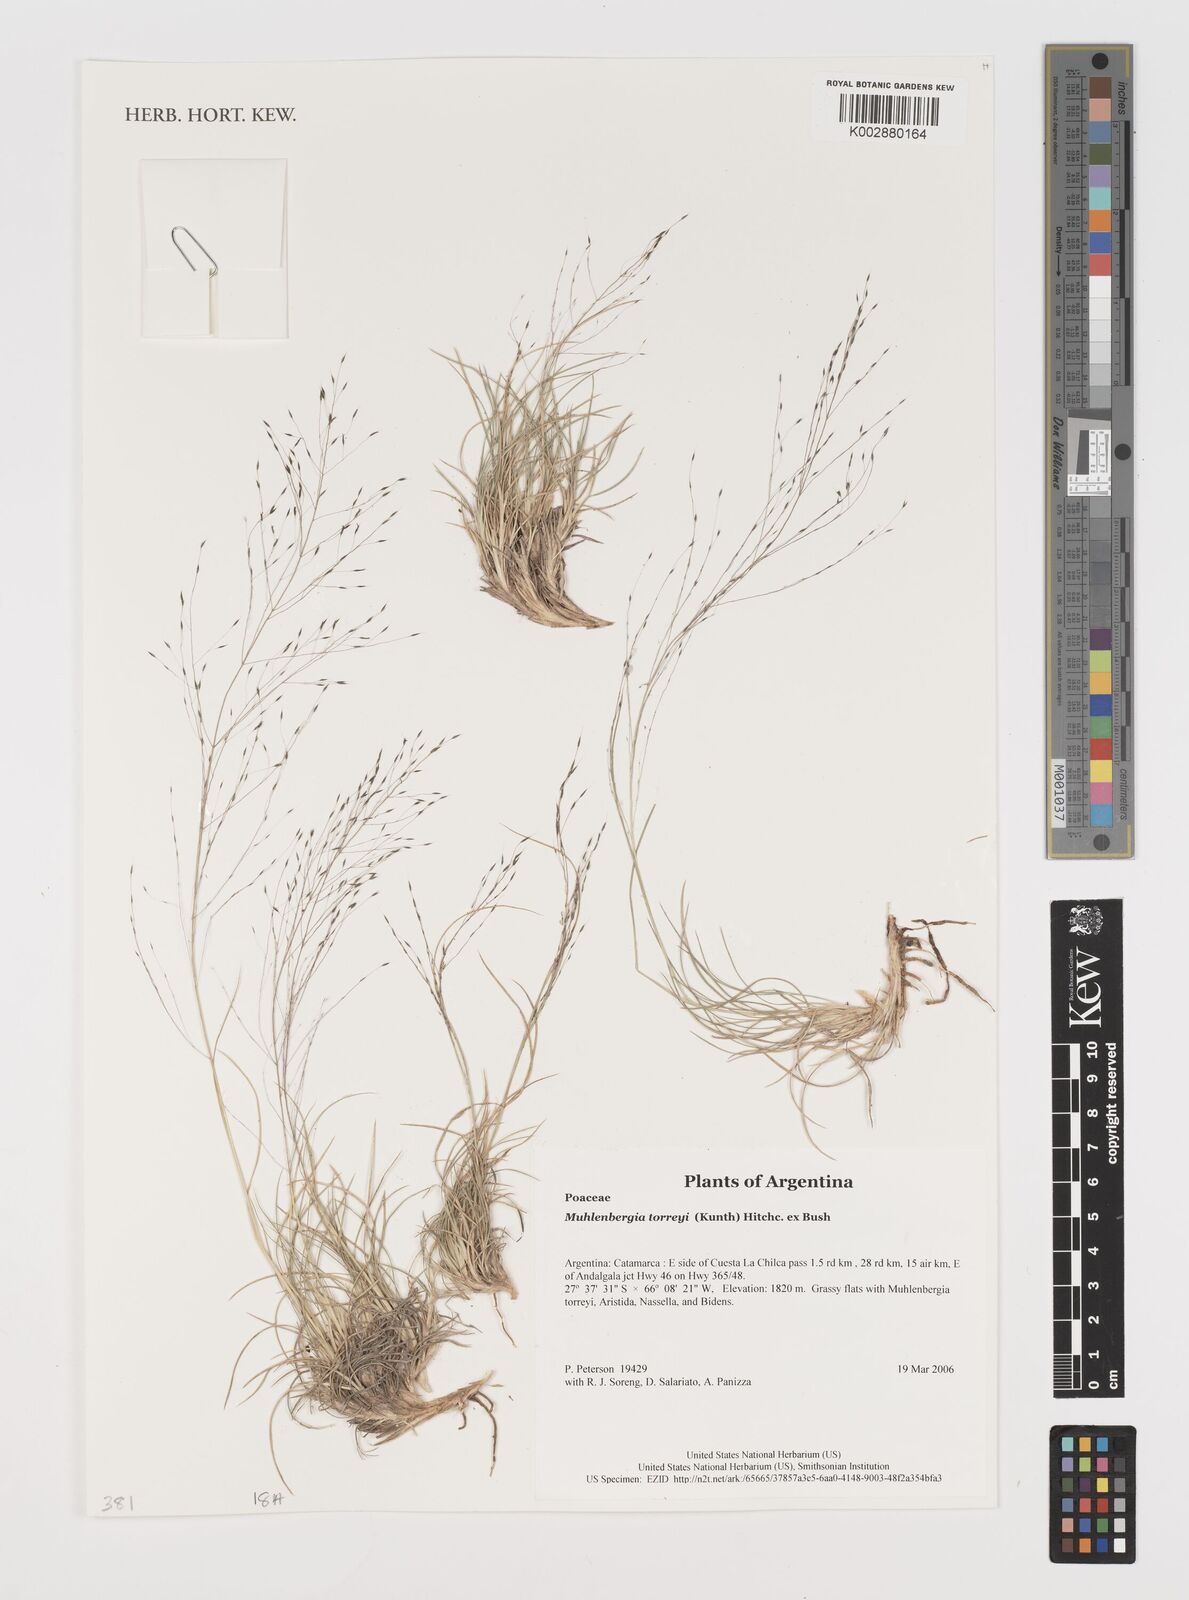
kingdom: Plantae
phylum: Tracheophyta
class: Liliopsida
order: Poales
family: Poaceae
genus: Muhlenbergia
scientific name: Muhlenbergia torreyi
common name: Ring grass
